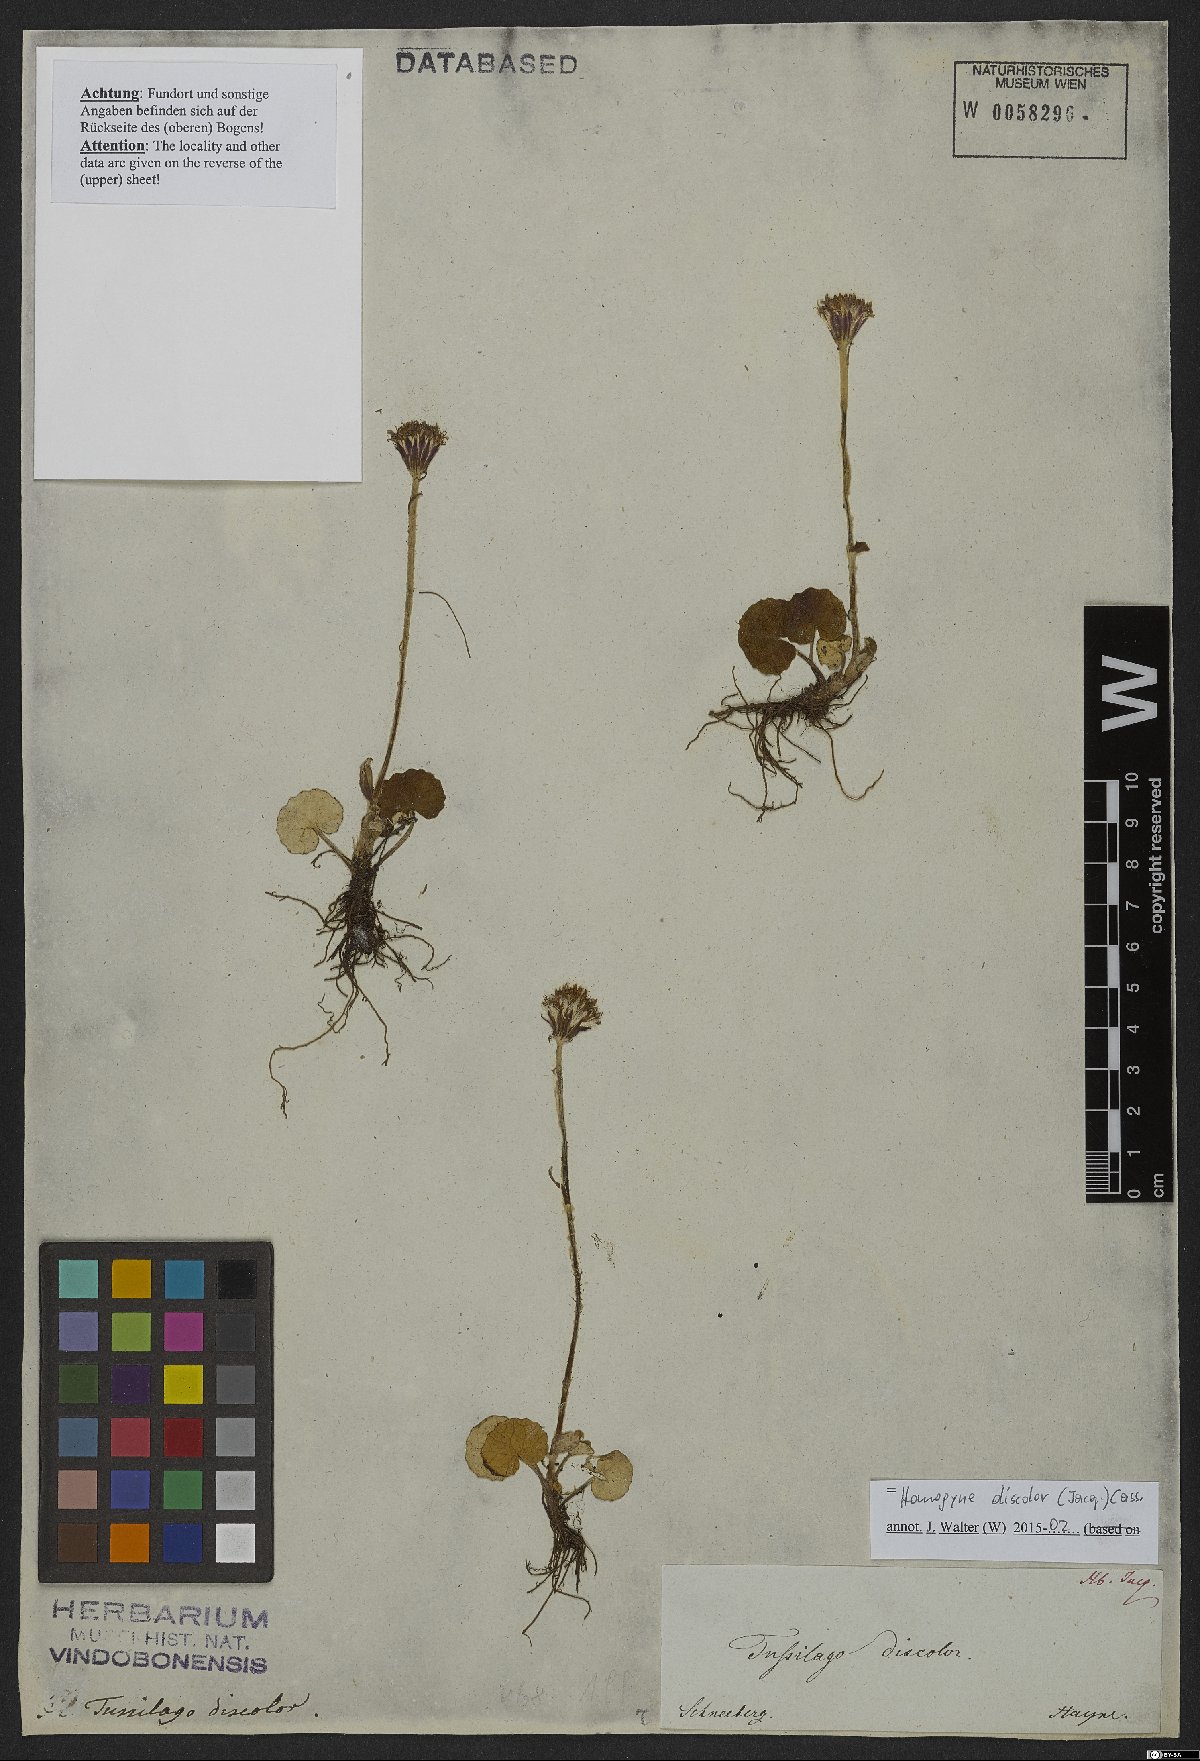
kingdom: Plantae
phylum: Tracheophyta
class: Magnoliopsida
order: Asterales
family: Asteraceae
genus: Homogyne
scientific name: Homogyne discolor
